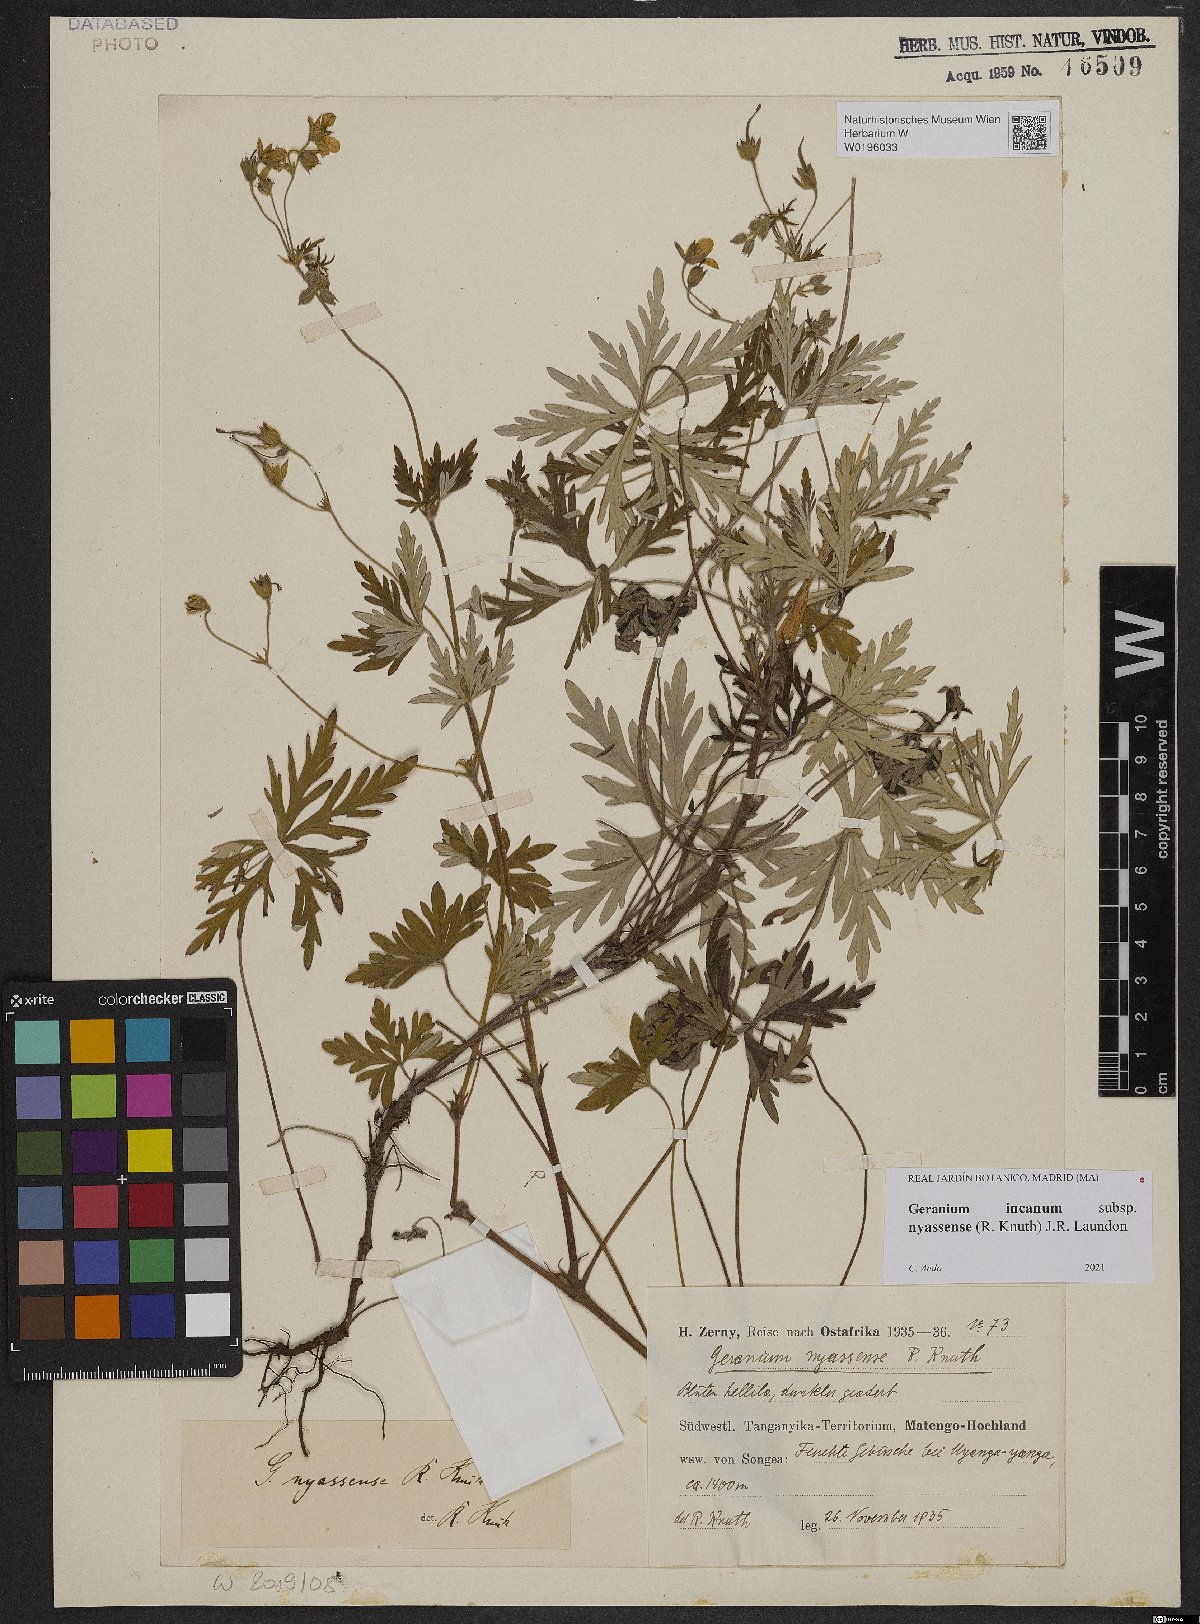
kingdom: Plantae
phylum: Tracheophyta
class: Magnoliopsida
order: Geraniales
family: Geraniaceae
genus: Geranium
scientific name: Geranium nyassense
